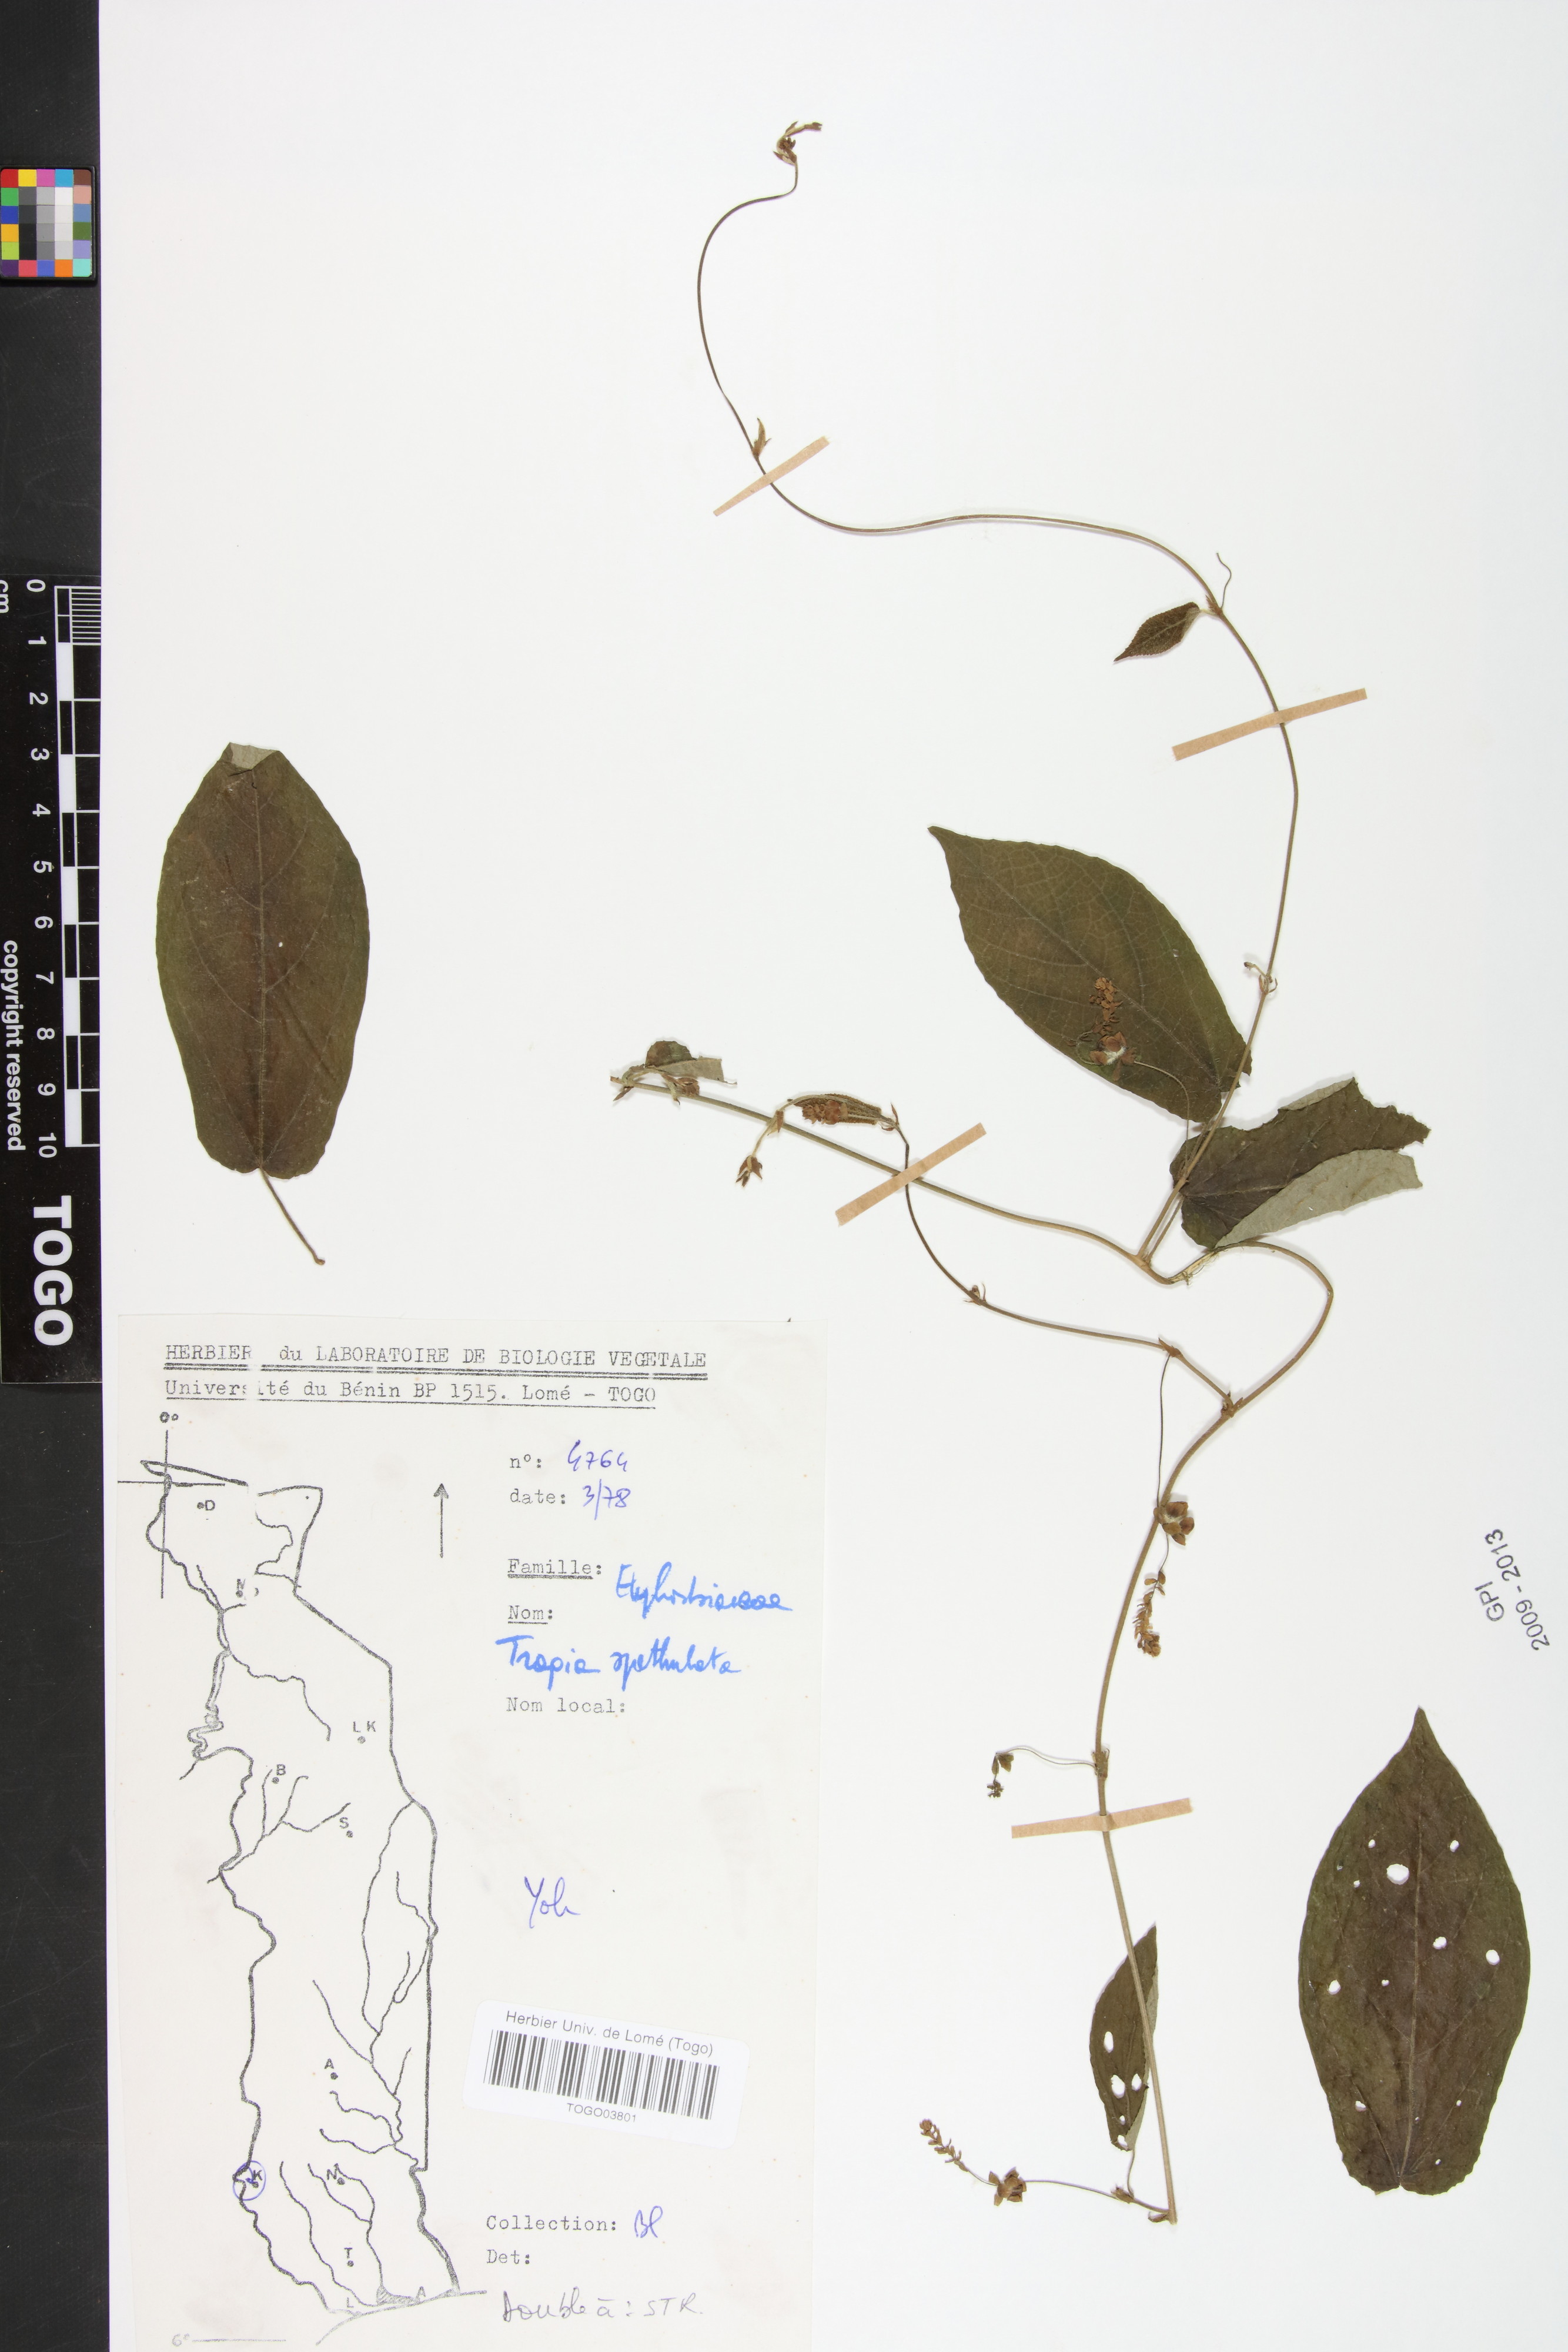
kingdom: Plantae
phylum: Tracheophyta
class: Magnoliopsida
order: Malpighiales
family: Euphorbiaceae
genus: Tragia
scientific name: Tragia spathulata
